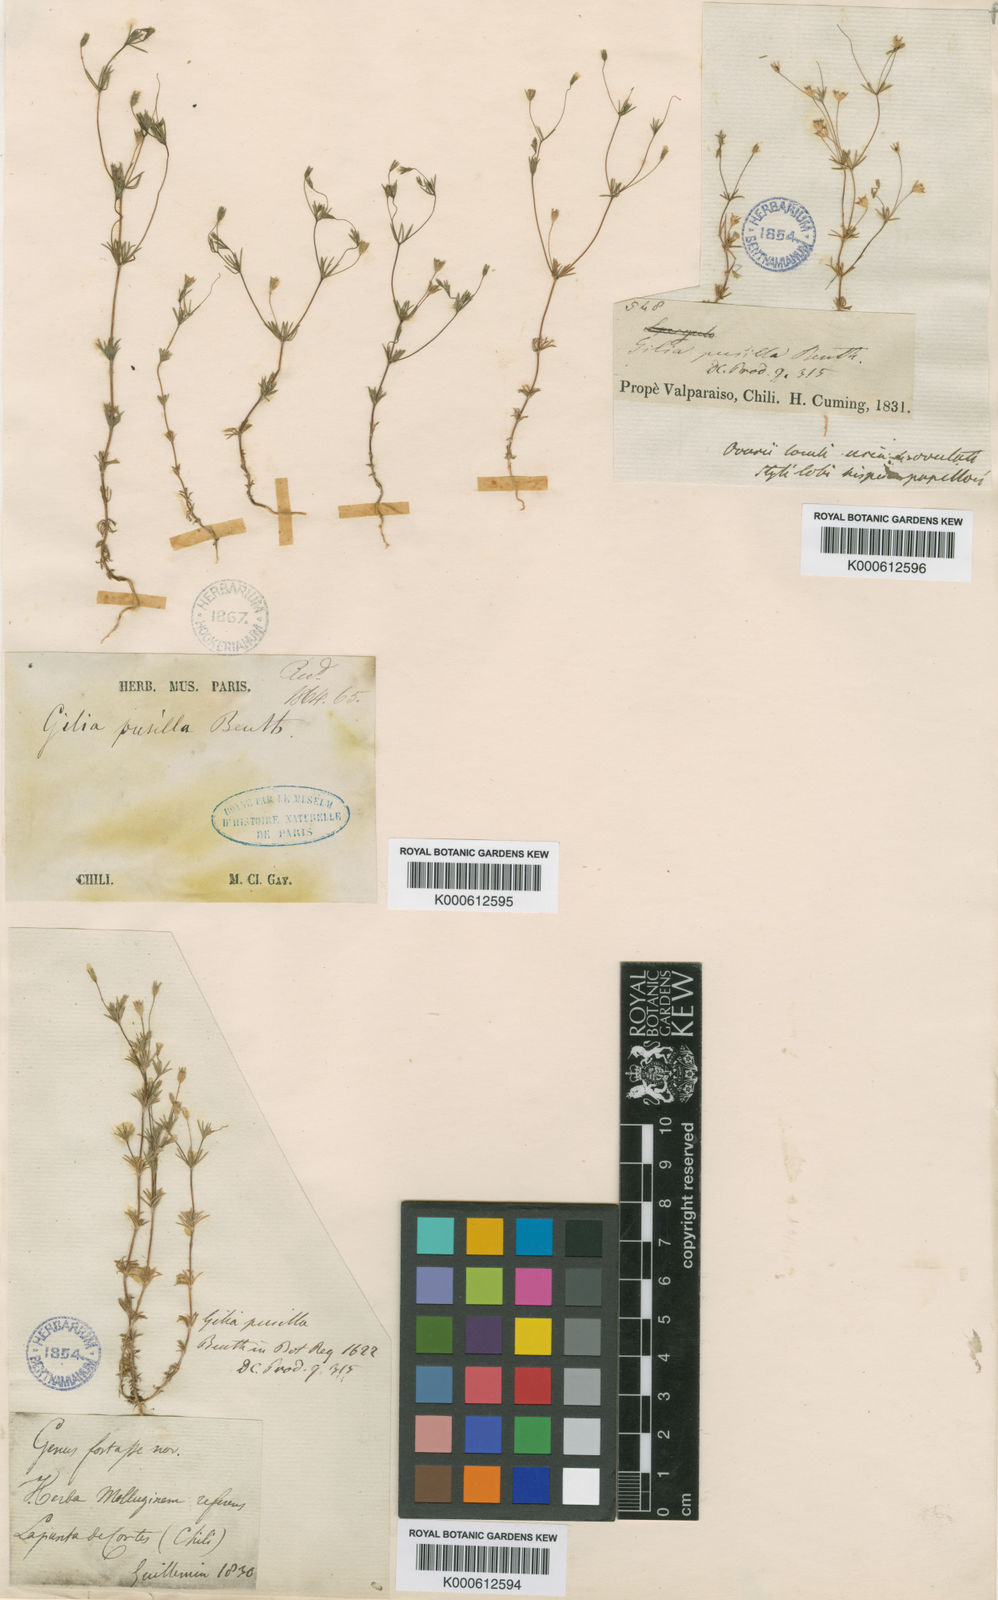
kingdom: Plantae
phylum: Tracheophyta
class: Magnoliopsida
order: Ericales
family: Polemoniaceae
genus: Leptosiphon
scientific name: Leptosiphon pusillus
